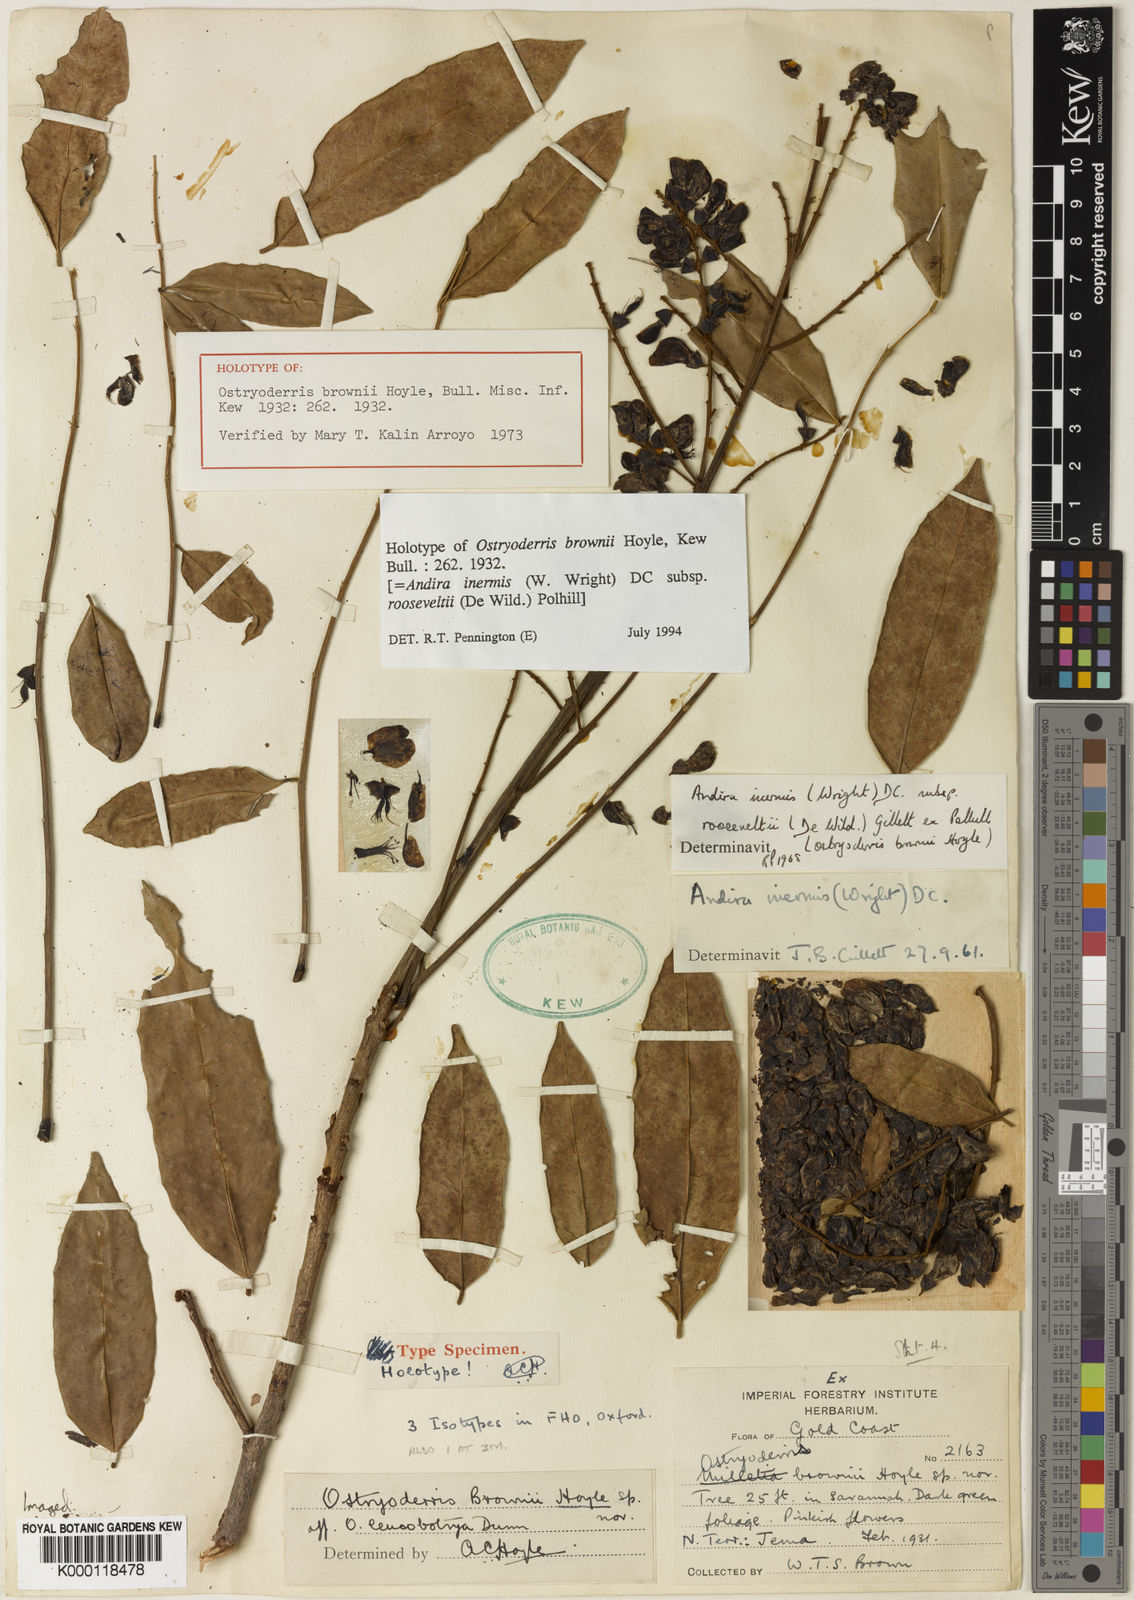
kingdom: Plantae
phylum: Tracheophyta
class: Magnoliopsida
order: Fabales
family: Fabaceae
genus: Andira
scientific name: Andira inermis
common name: Angelin
